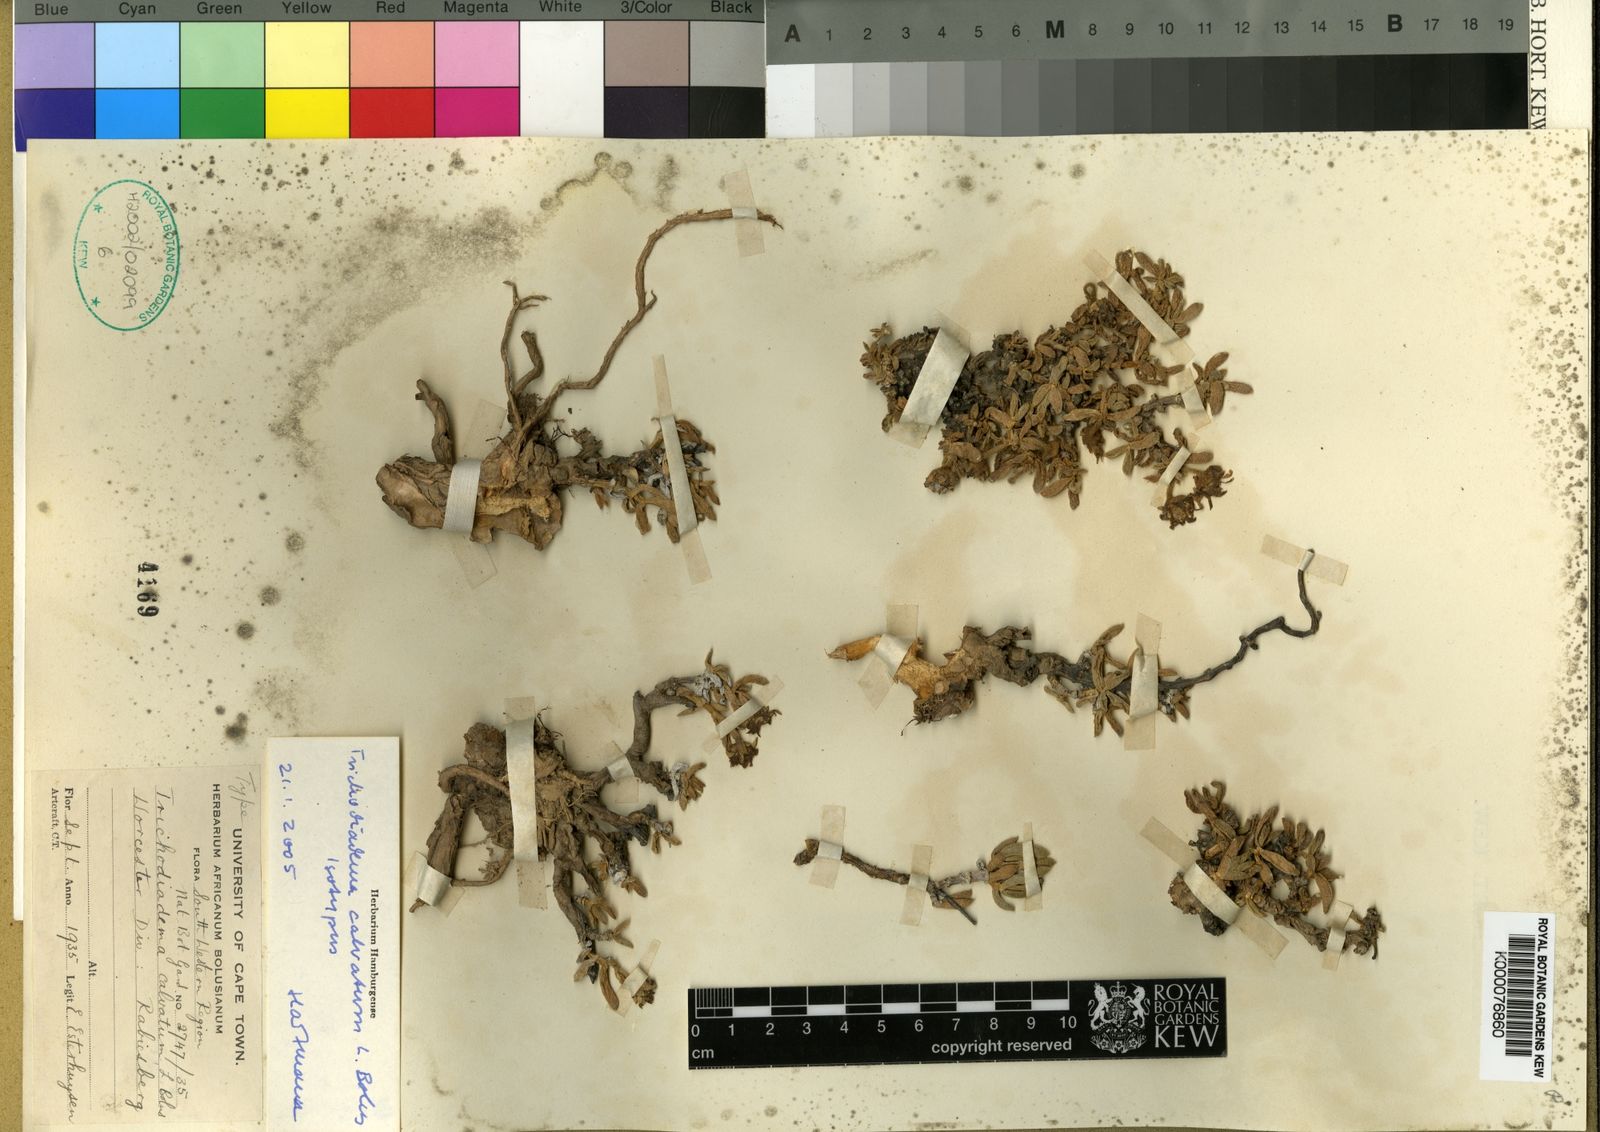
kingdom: Plantae
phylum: Tracheophyta
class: Magnoliopsida
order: Caryophyllales
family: Aizoaceae
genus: Trichodiadema
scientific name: Trichodiadema calvatum
